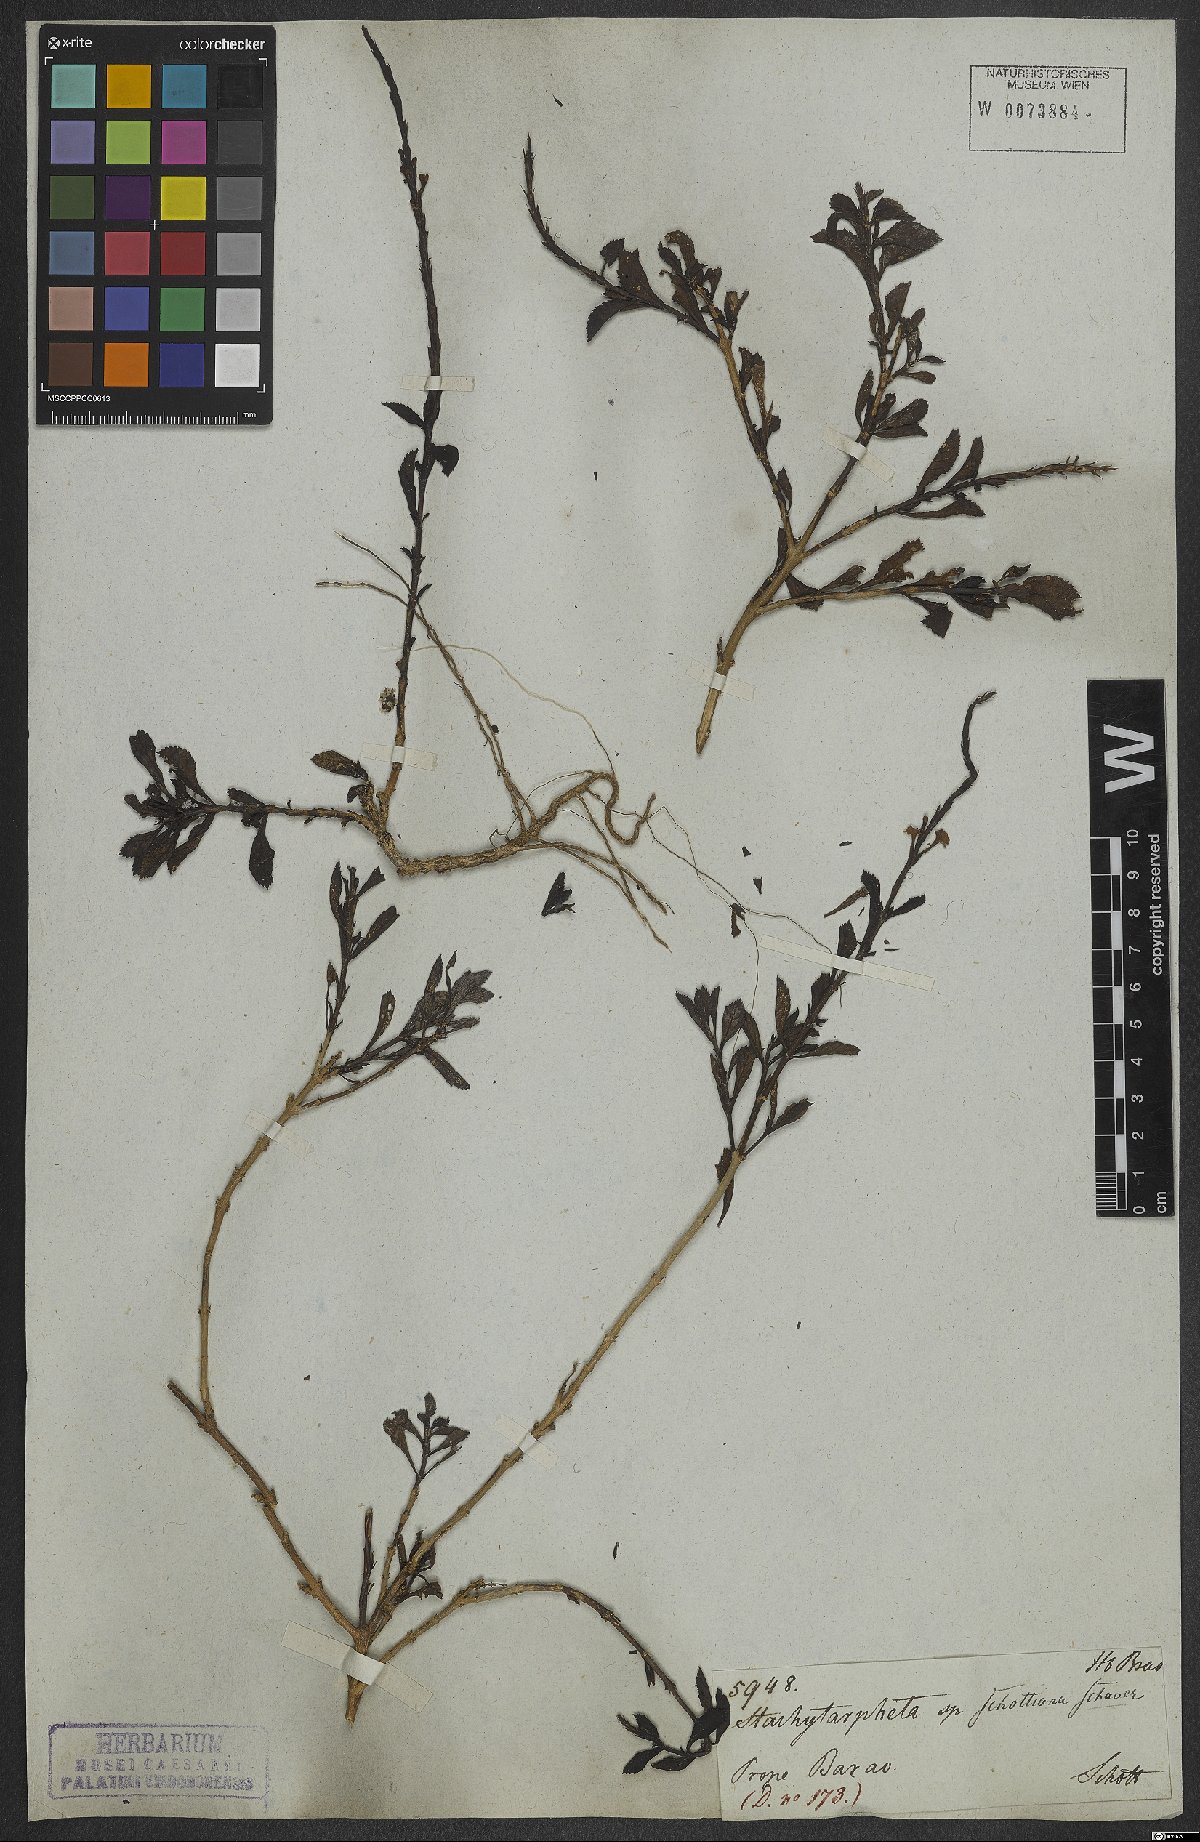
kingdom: Plantae
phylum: Tracheophyta
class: Magnoliopsida
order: Lamiales
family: Verbenaceae
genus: Stachytarpheta
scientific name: Stachytarpheta schottiana
